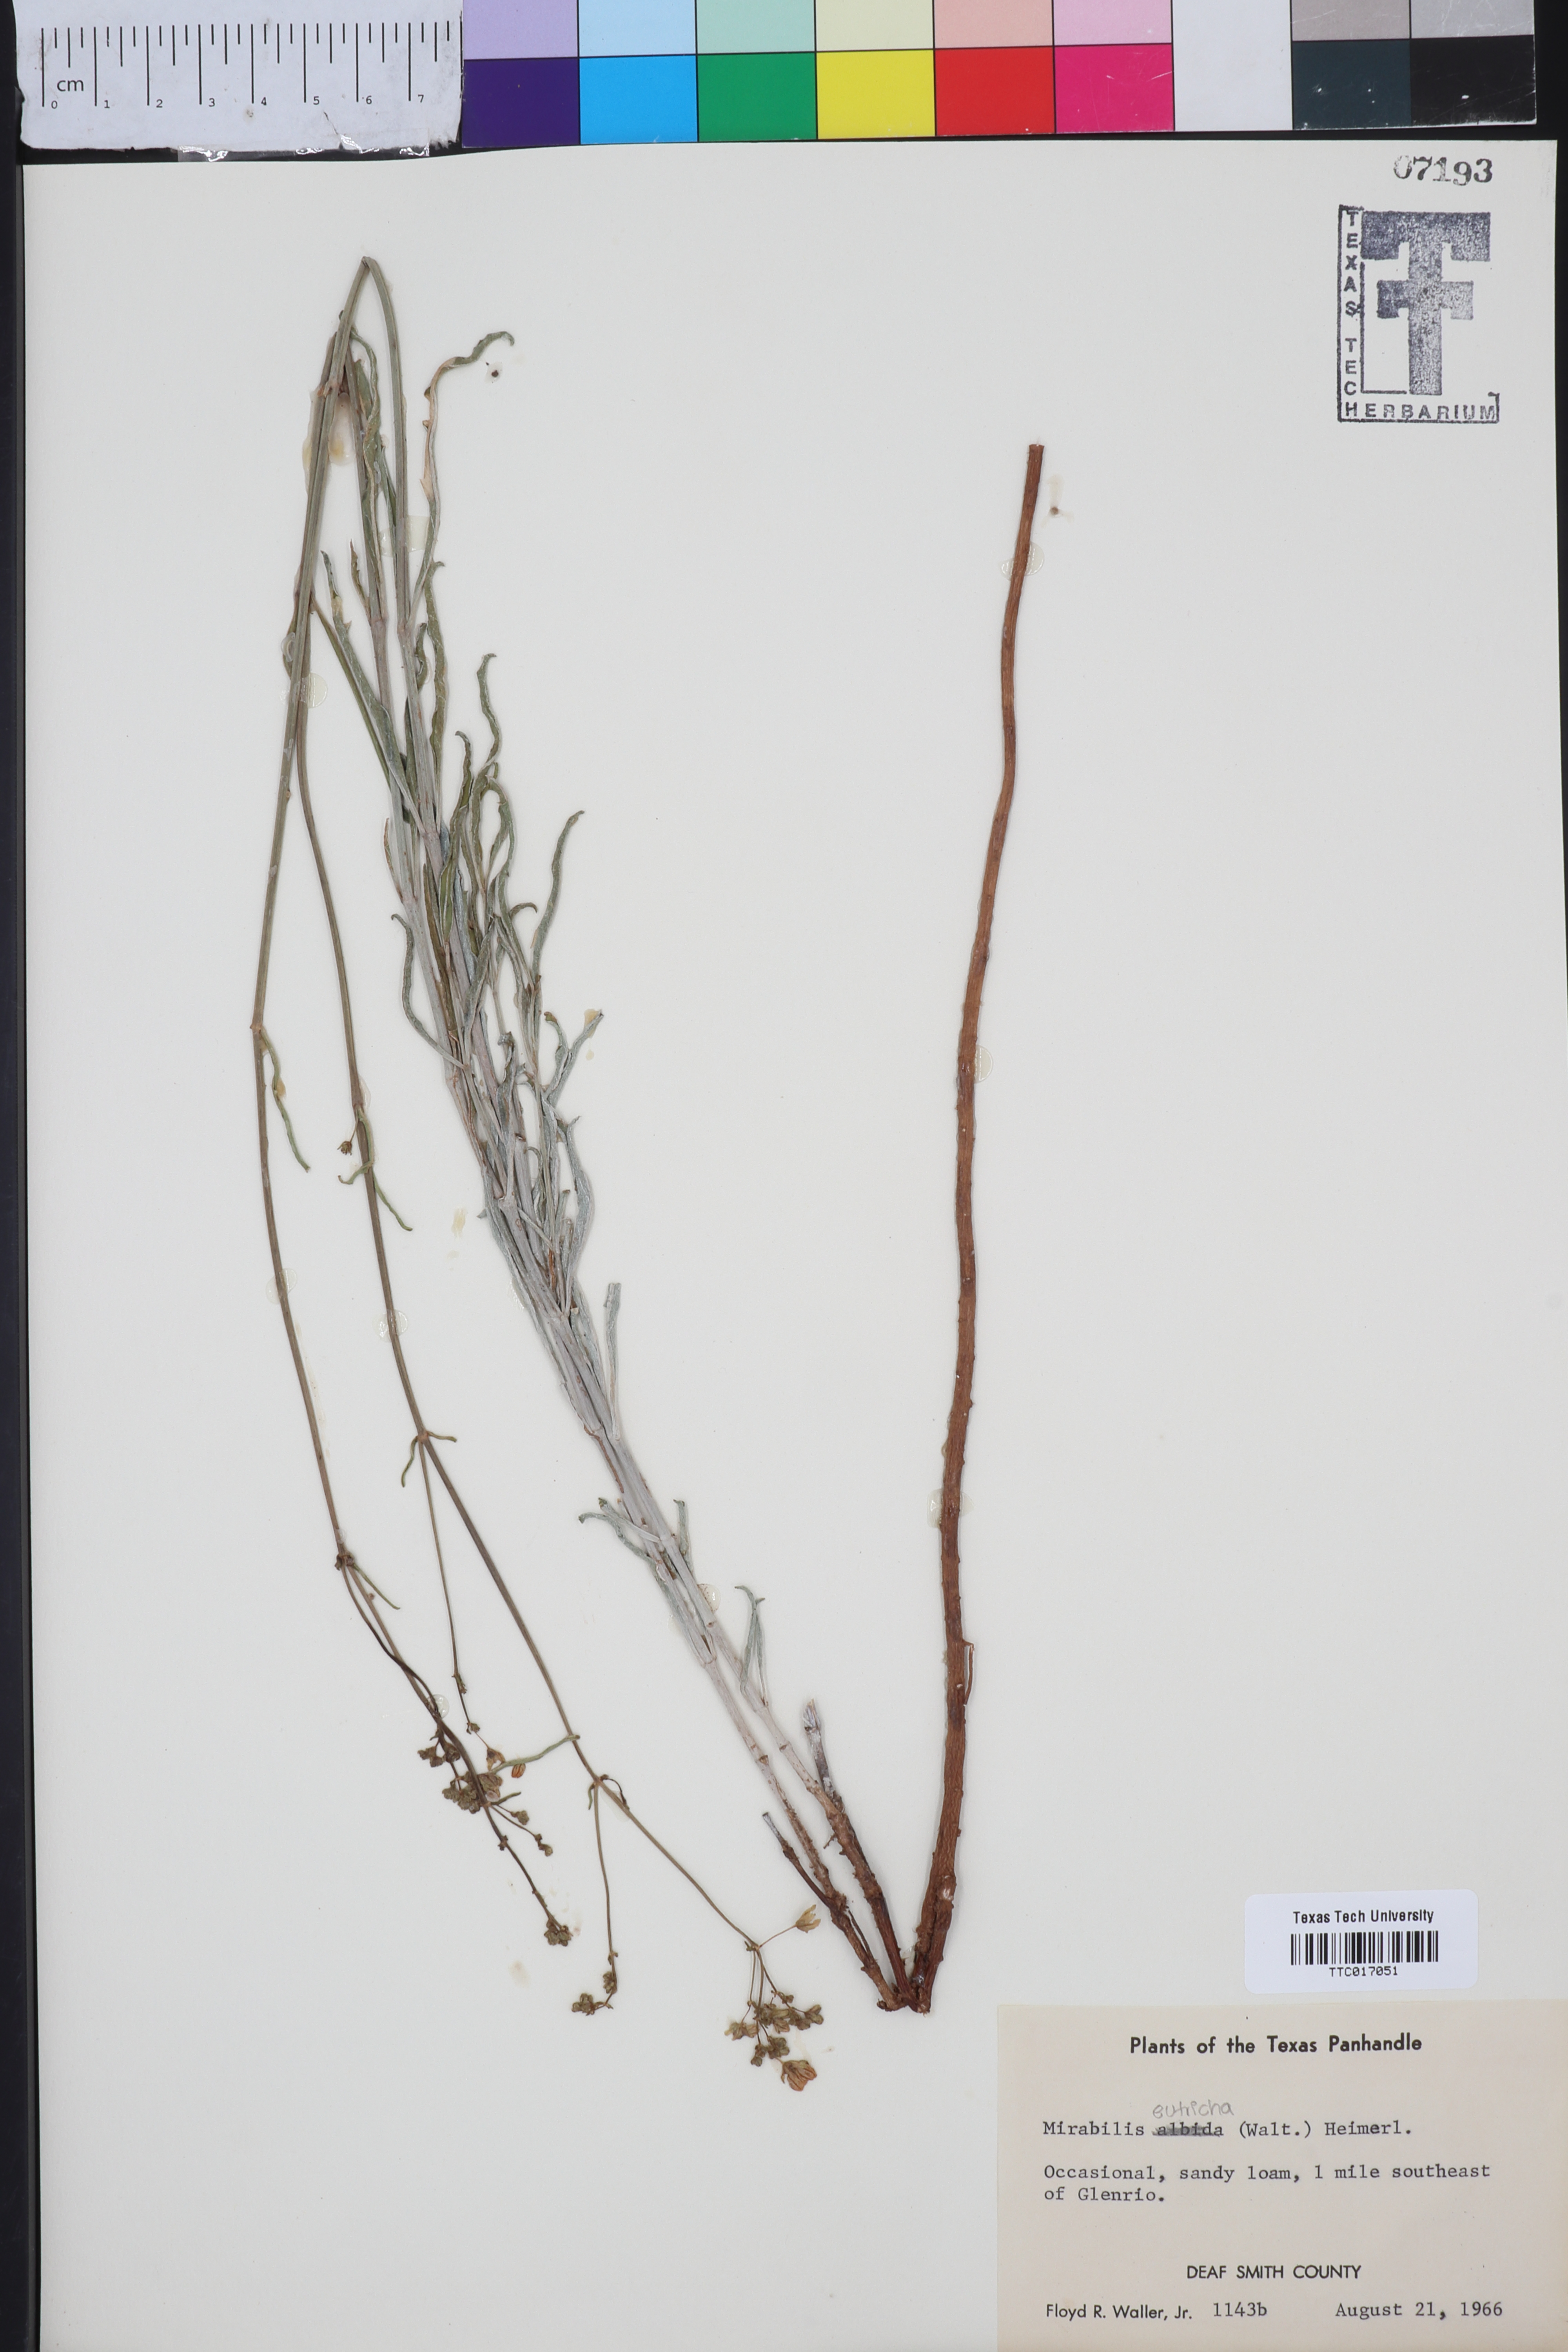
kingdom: Plantae
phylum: Tracheophyta
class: Magnoliopsida
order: Caryophyllales
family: Nyctaginaceae
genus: Mirabilis
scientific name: Mirabilis albida
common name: Hairy four-o'clock
